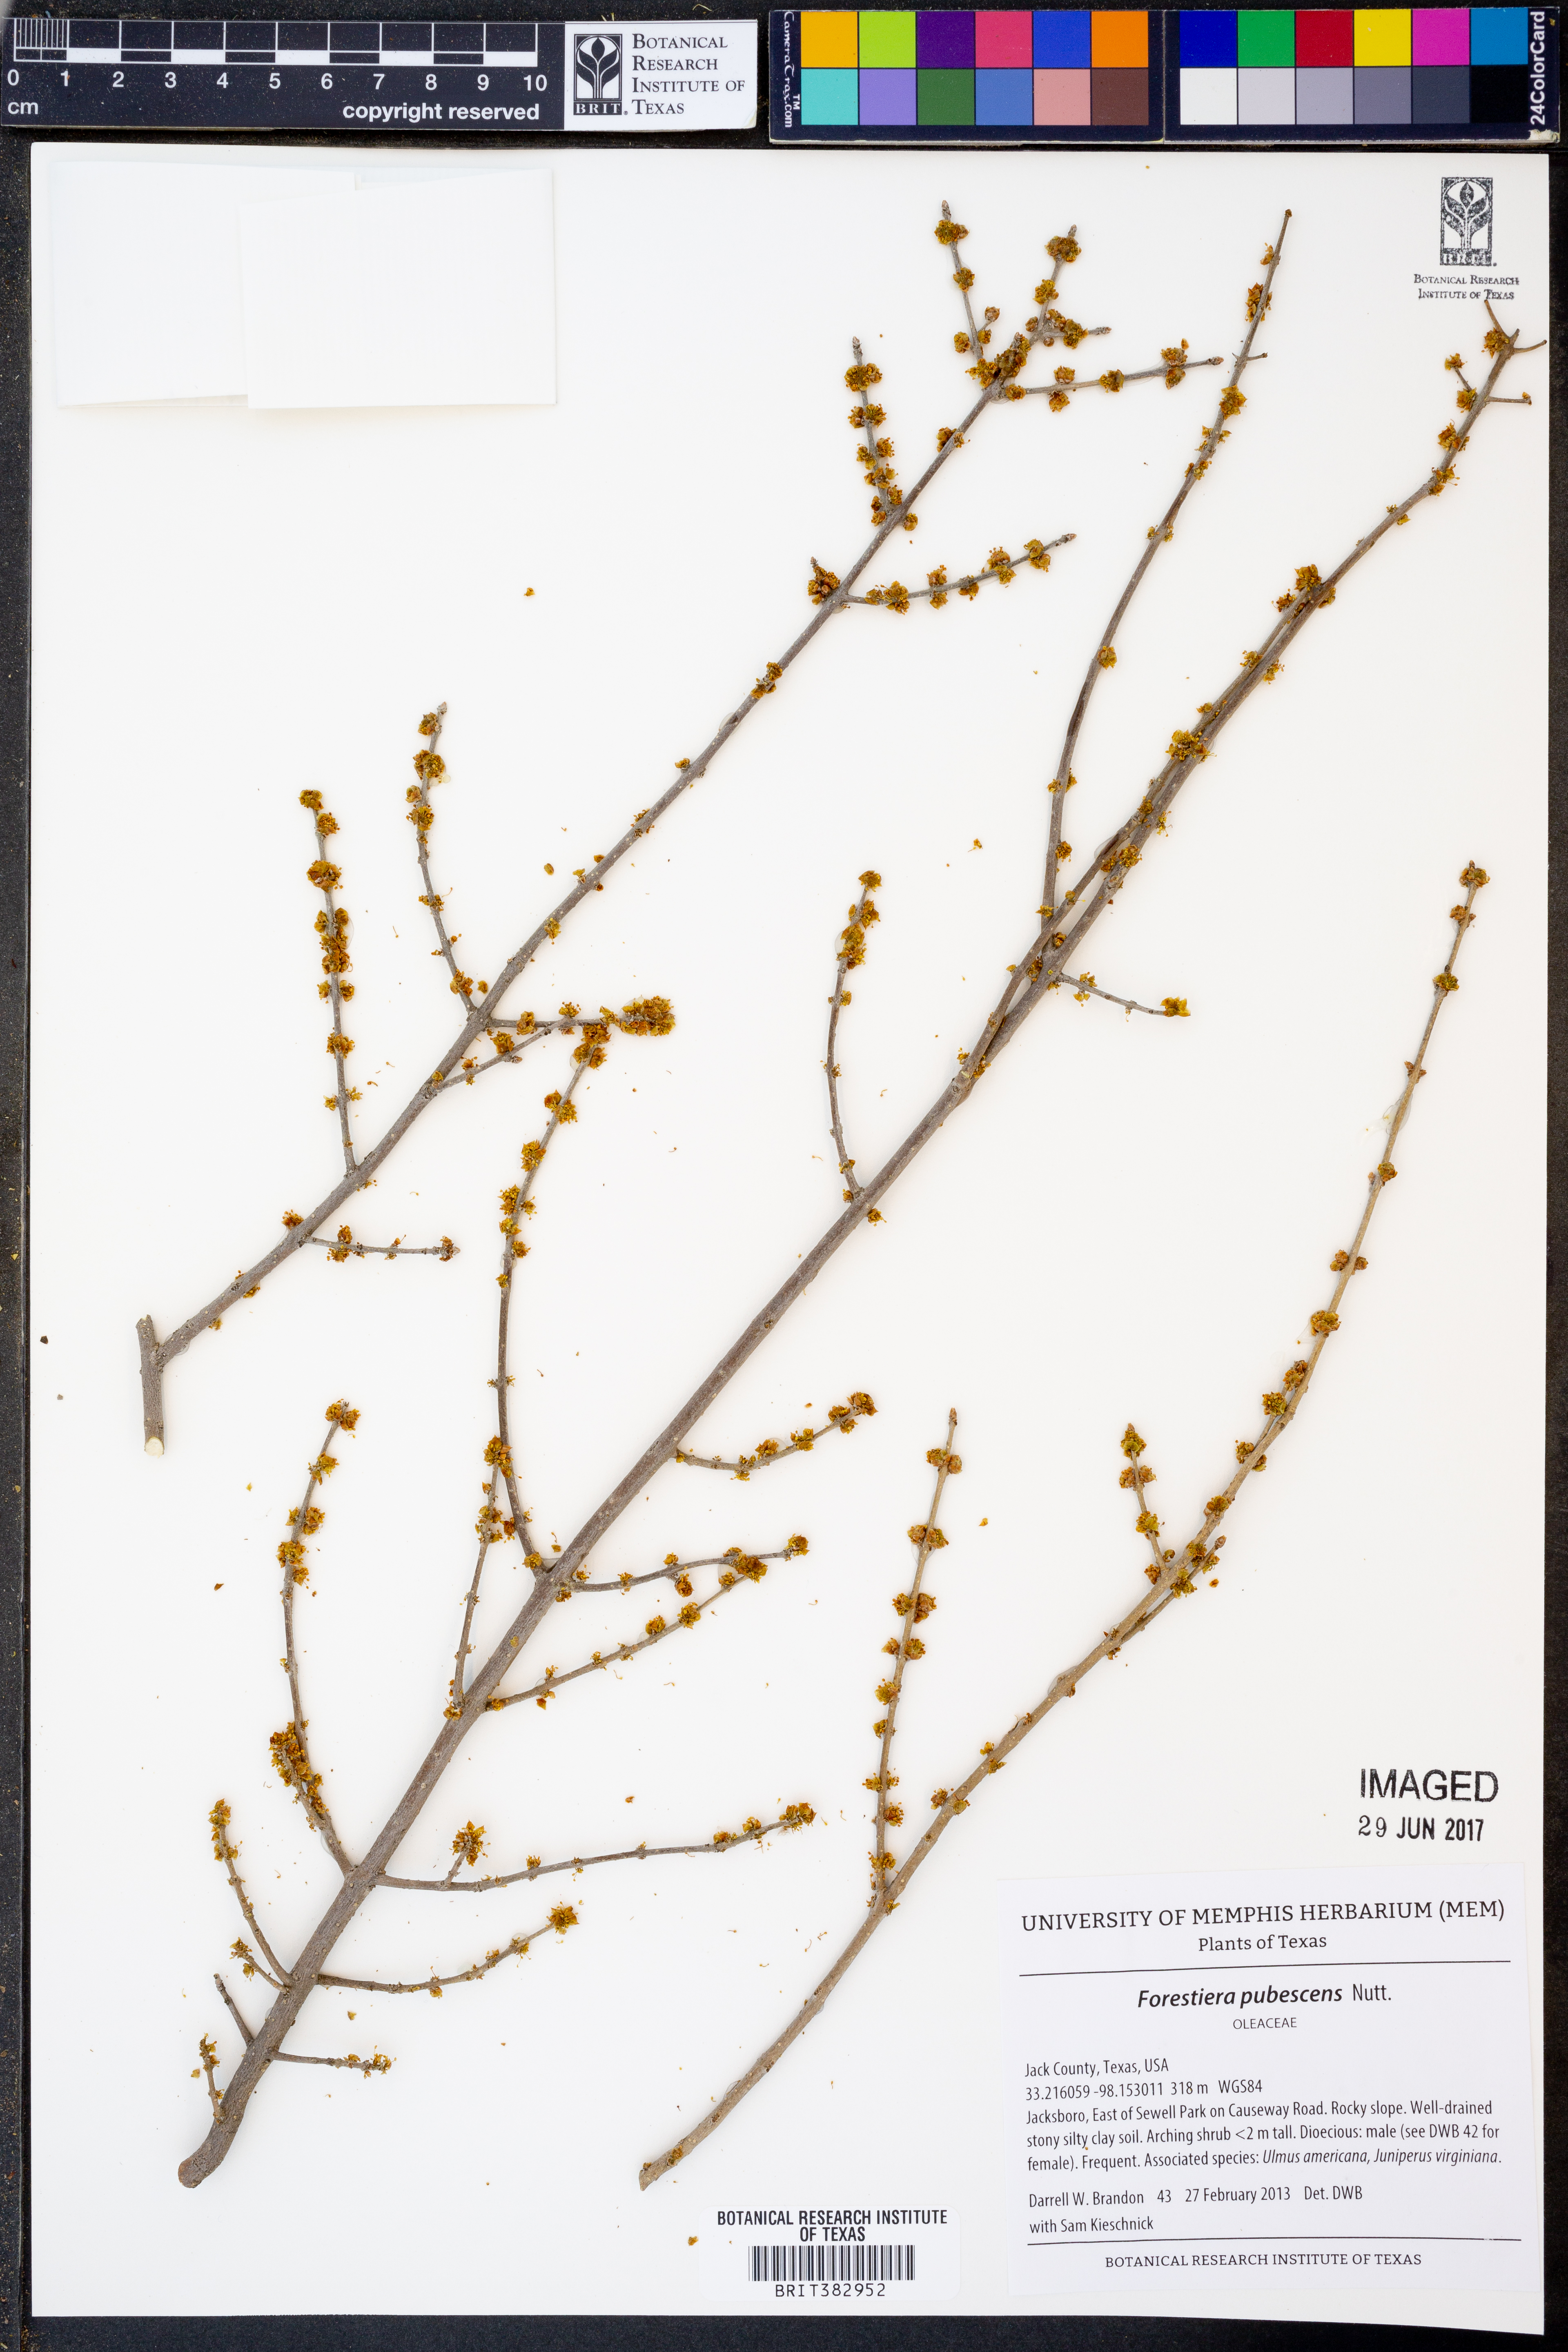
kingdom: Plantae
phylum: Tracheophyta
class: Magnoliopsida
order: Lamiales
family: Oleaceae
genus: Forestiera
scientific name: Forestiera pubescens
